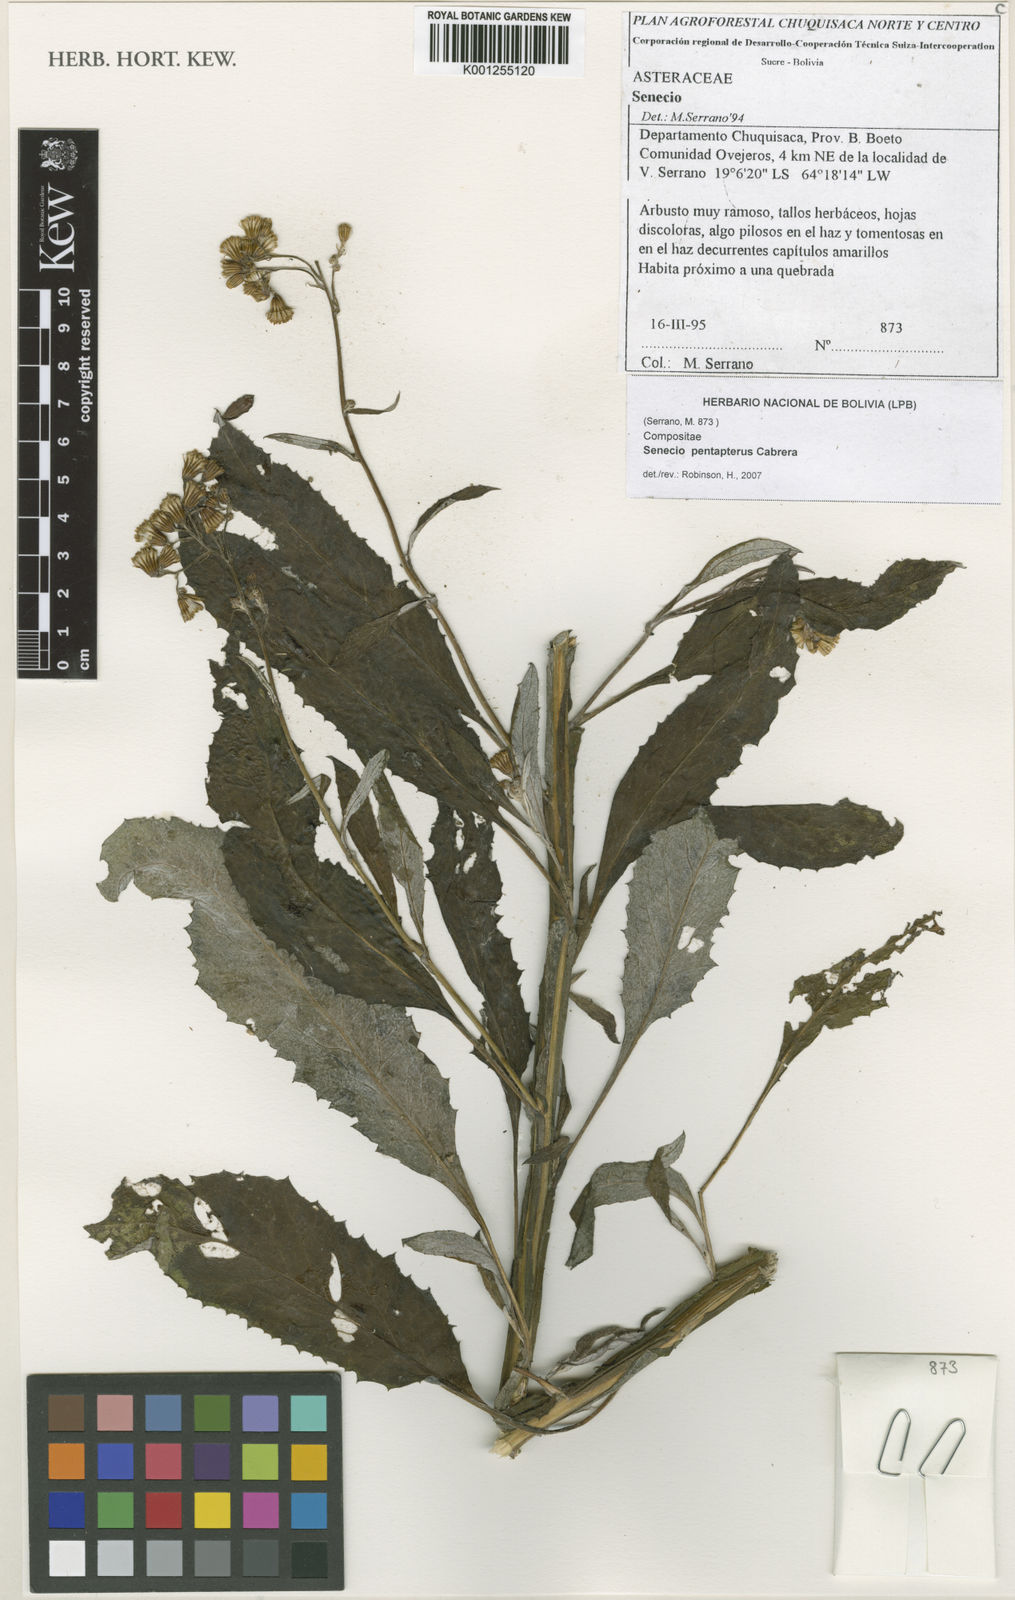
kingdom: Plantae
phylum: Tracheophyta
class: Magnoliopsida
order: Asterales
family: Asteraceae
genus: Senecio
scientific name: Senecio pentapterus
